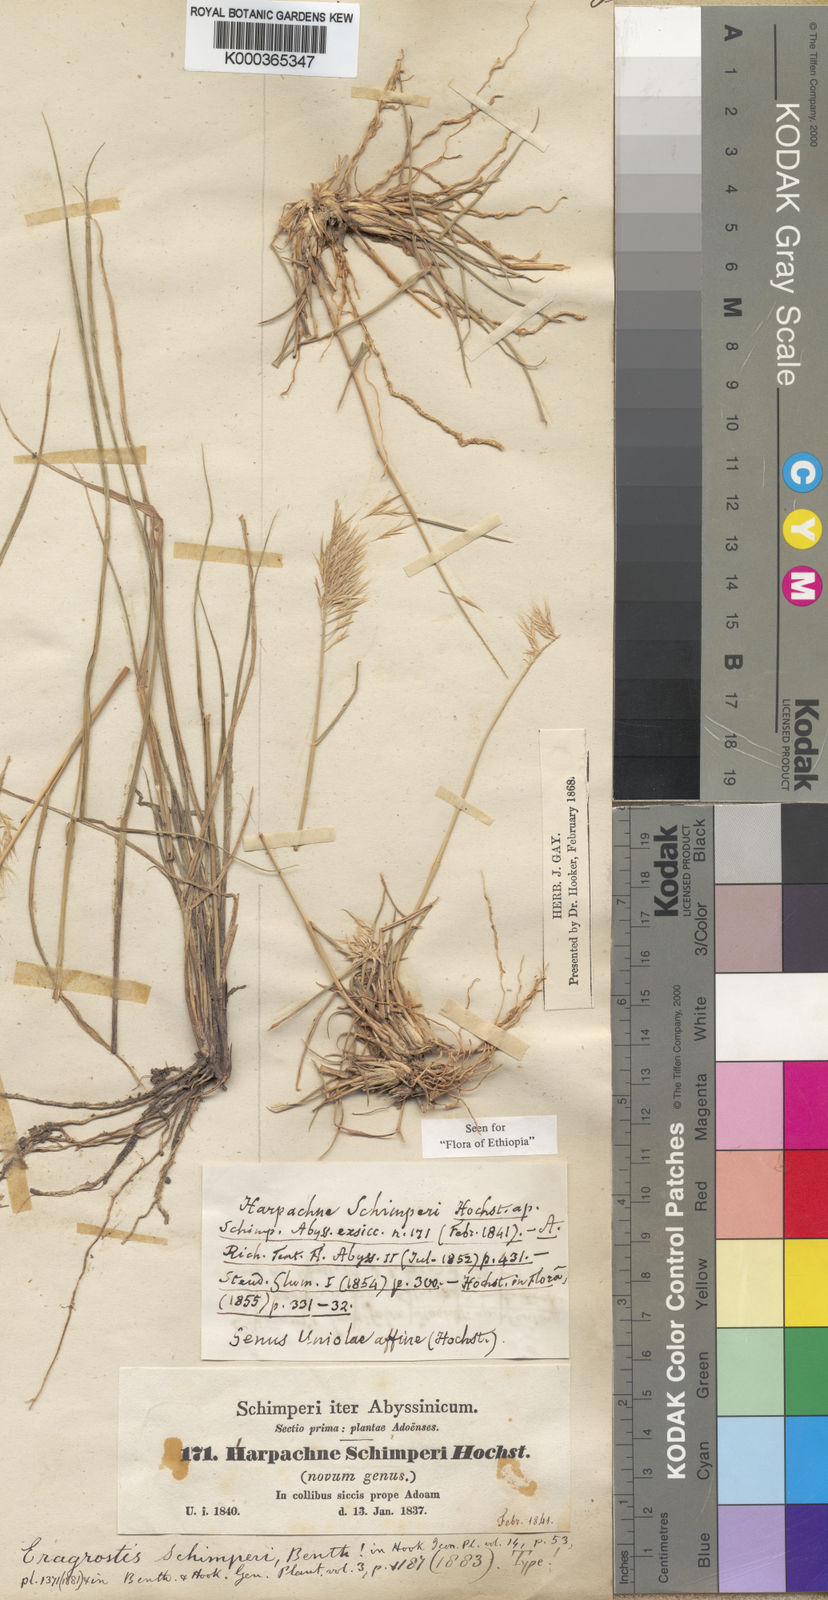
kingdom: Plantae
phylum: Tracheophyta
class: Liliopsida
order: Poales
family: Poaceae
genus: Harpachne
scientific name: Harpachne schimperi
